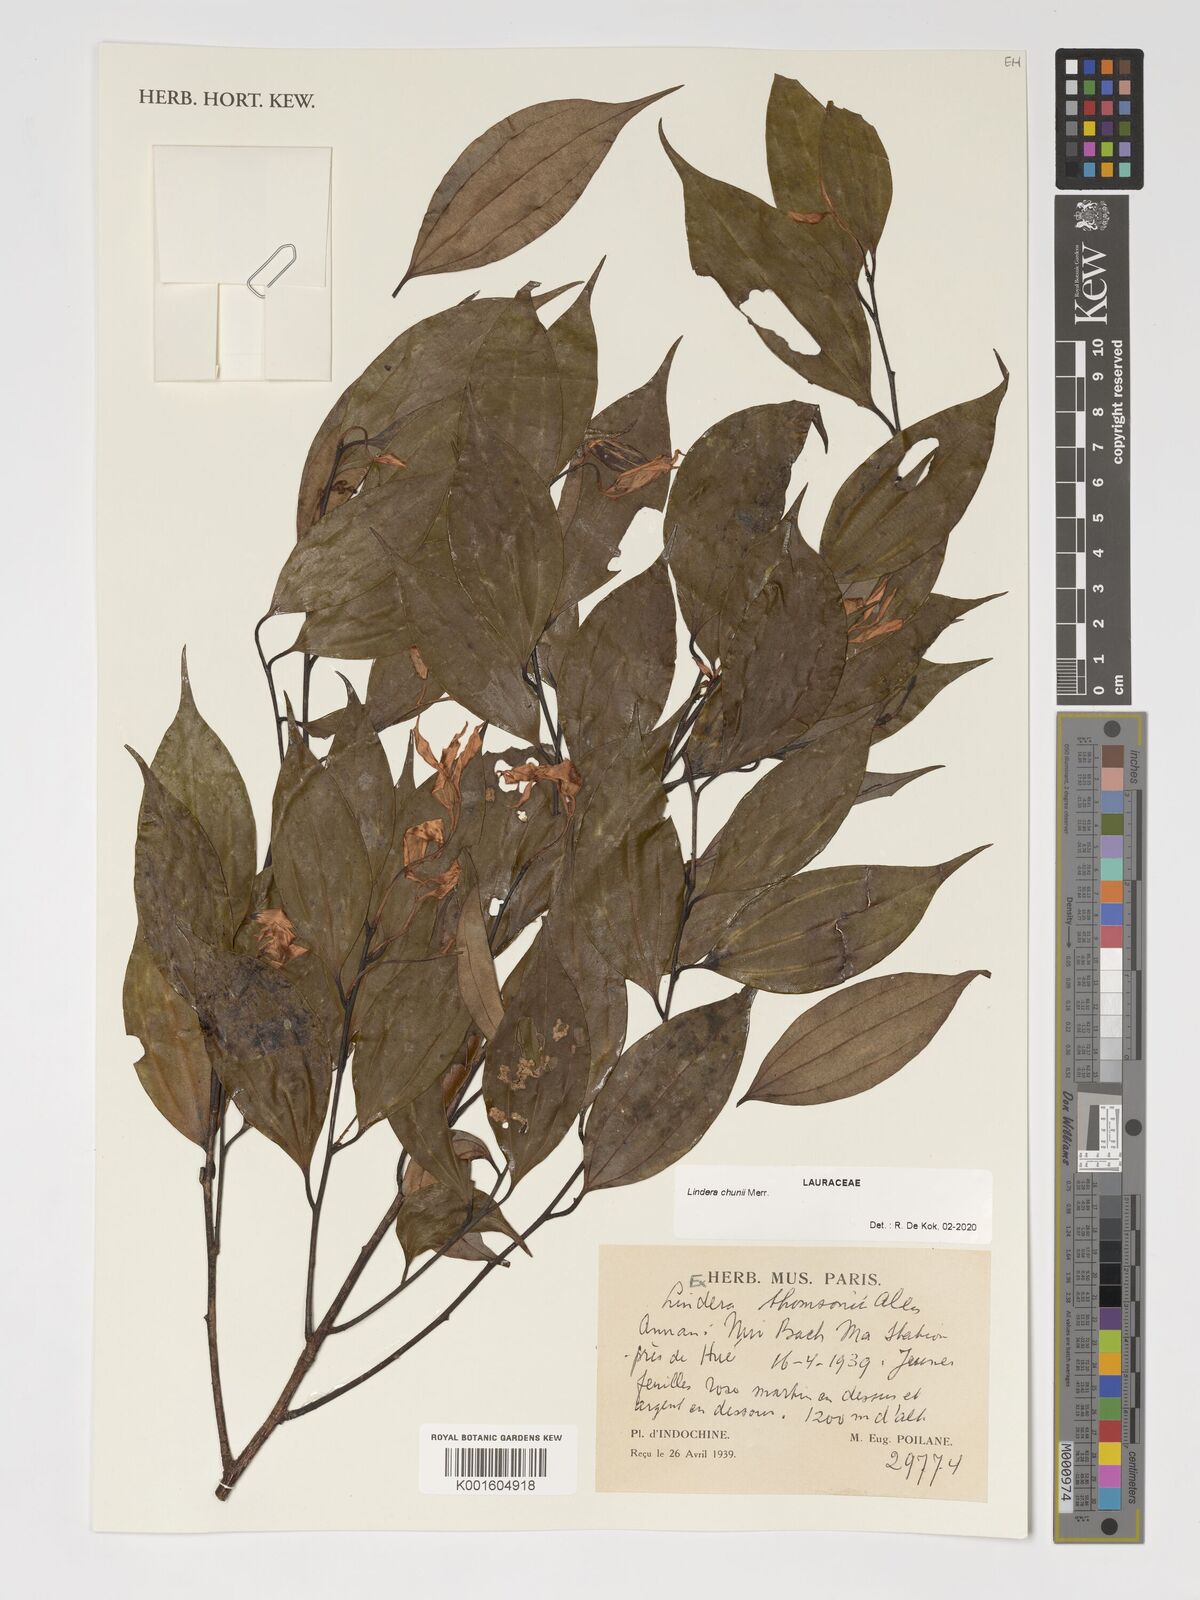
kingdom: Plantae
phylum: Tracheophyta
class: Magnoliopsida
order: Laurales
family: Lauraceae
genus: Lindera
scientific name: Lindera chunii
